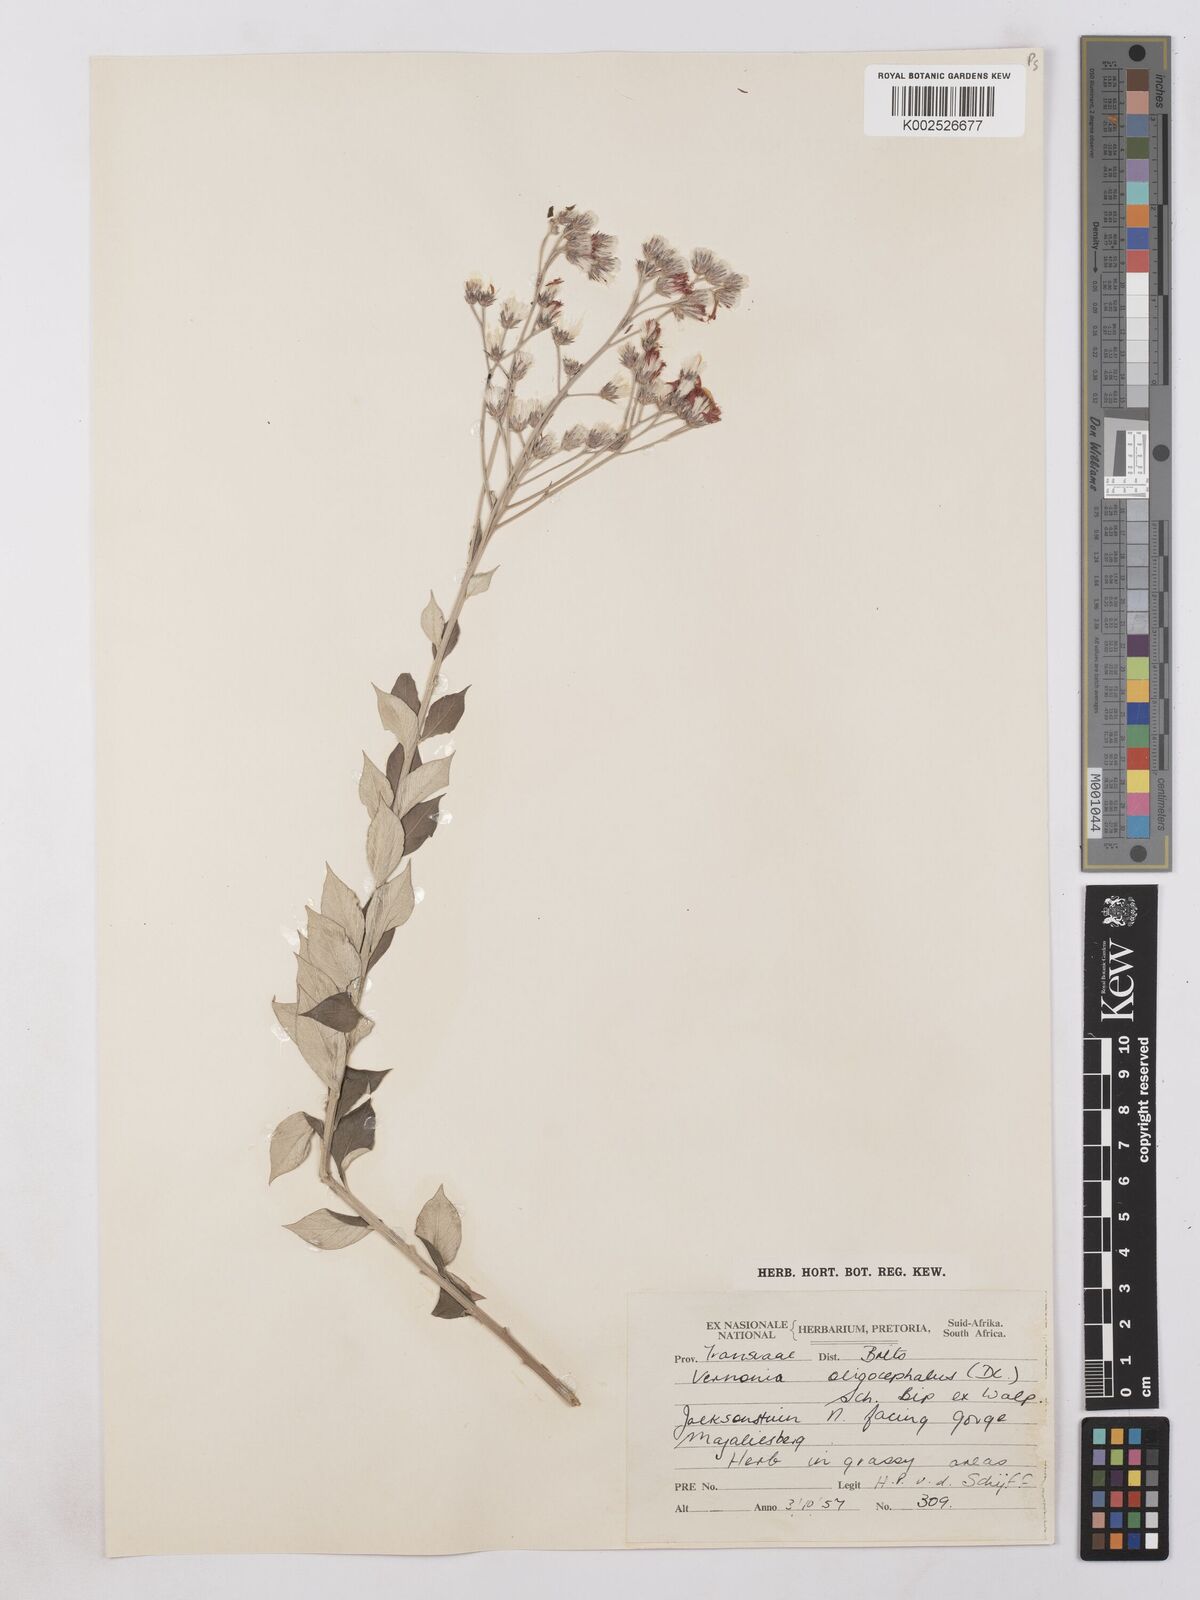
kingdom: Plantae
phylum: Tracheophyta
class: Magnoliopsida
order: Asterales
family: Asteraceae
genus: Hilliardiella
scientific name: Hilliardiella oligocephala
